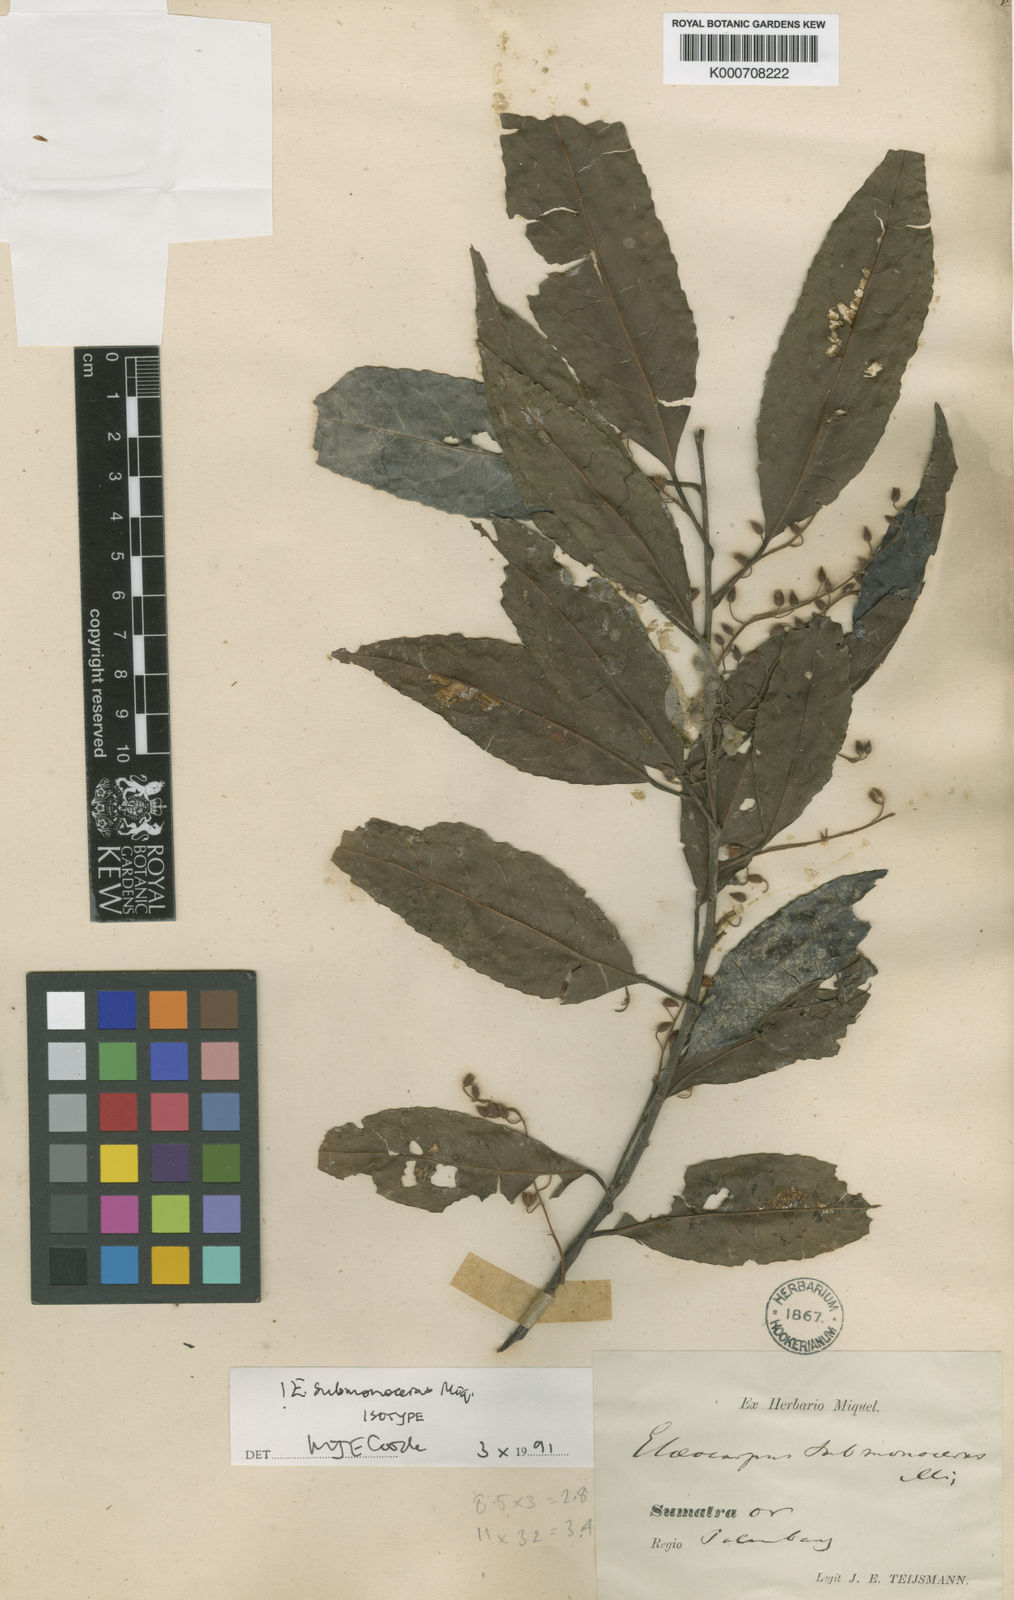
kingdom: Plantae
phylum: Tracheophyta
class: Magnoliopsida
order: Oxalidales
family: Elaeocarpaceae
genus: Elaeocarpus
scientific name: Elaeocarpus submonoceras
